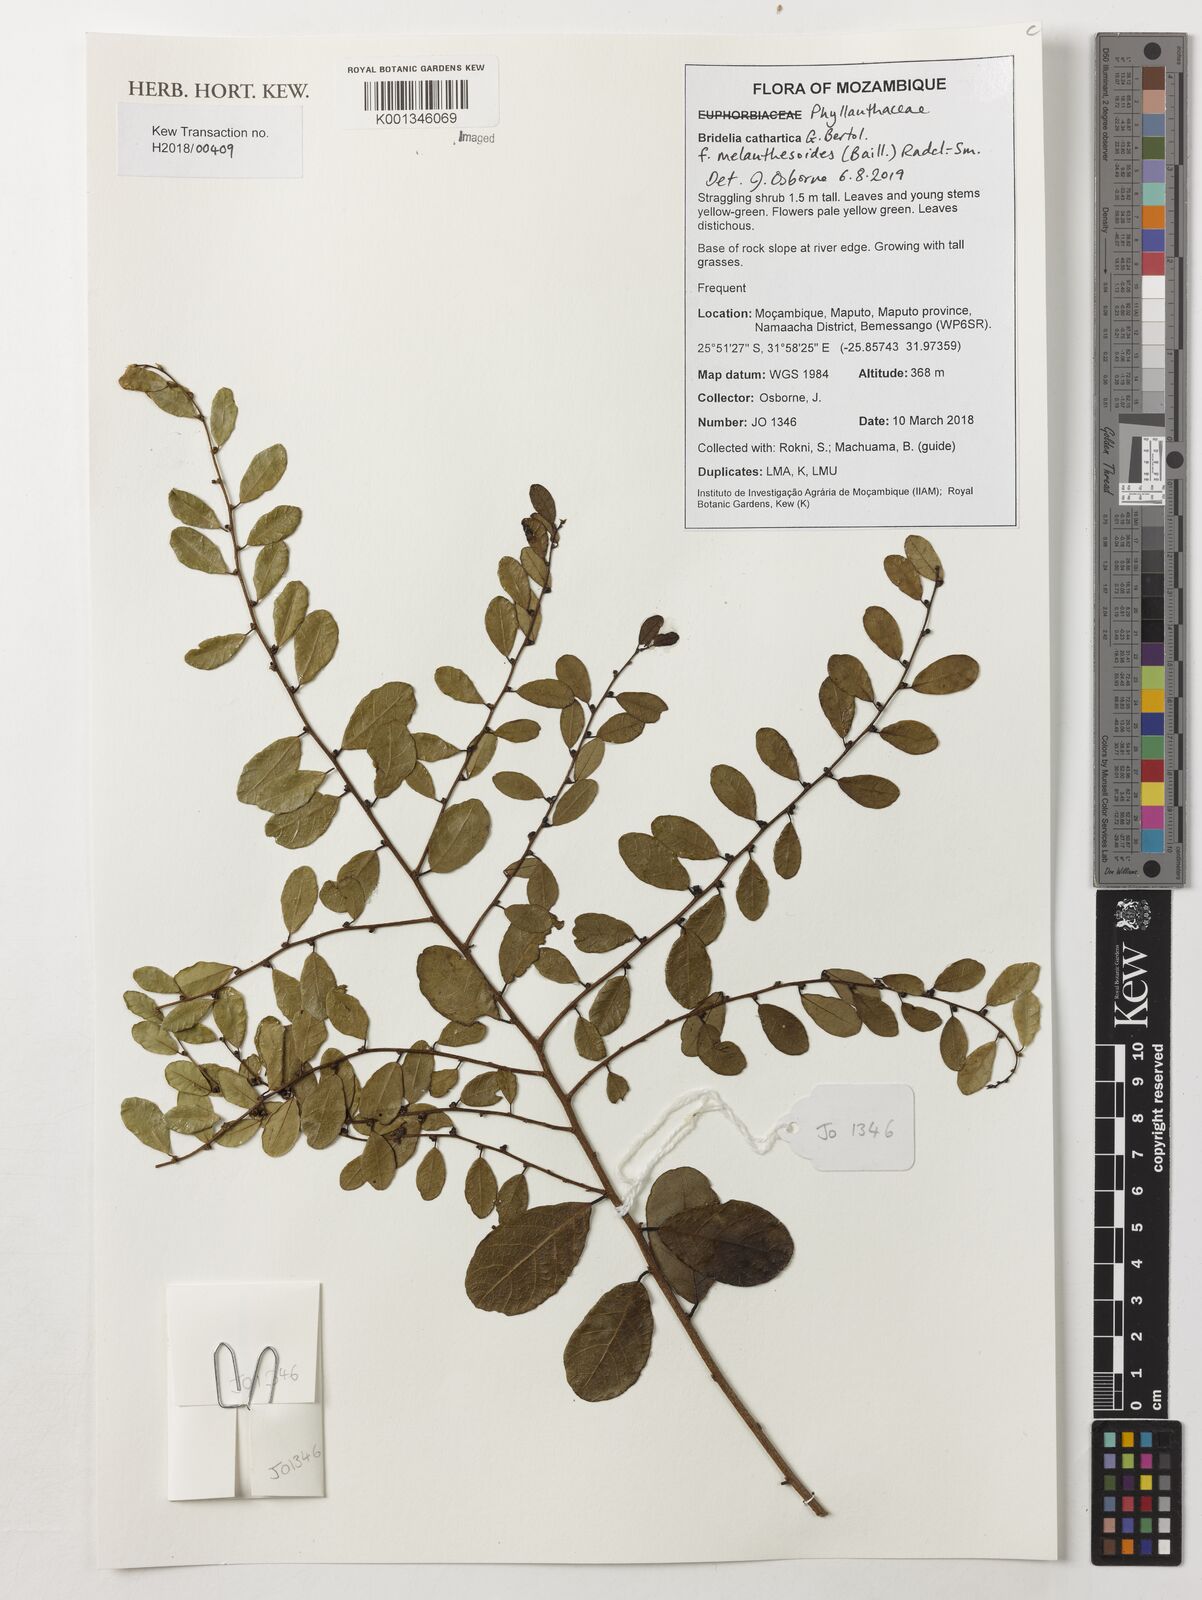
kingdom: Plantae
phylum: Tracheophyta
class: Magnoliopsida
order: Malpighiales
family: Phyllanthaceae
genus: Bridelia
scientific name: Bridelia cathartica
